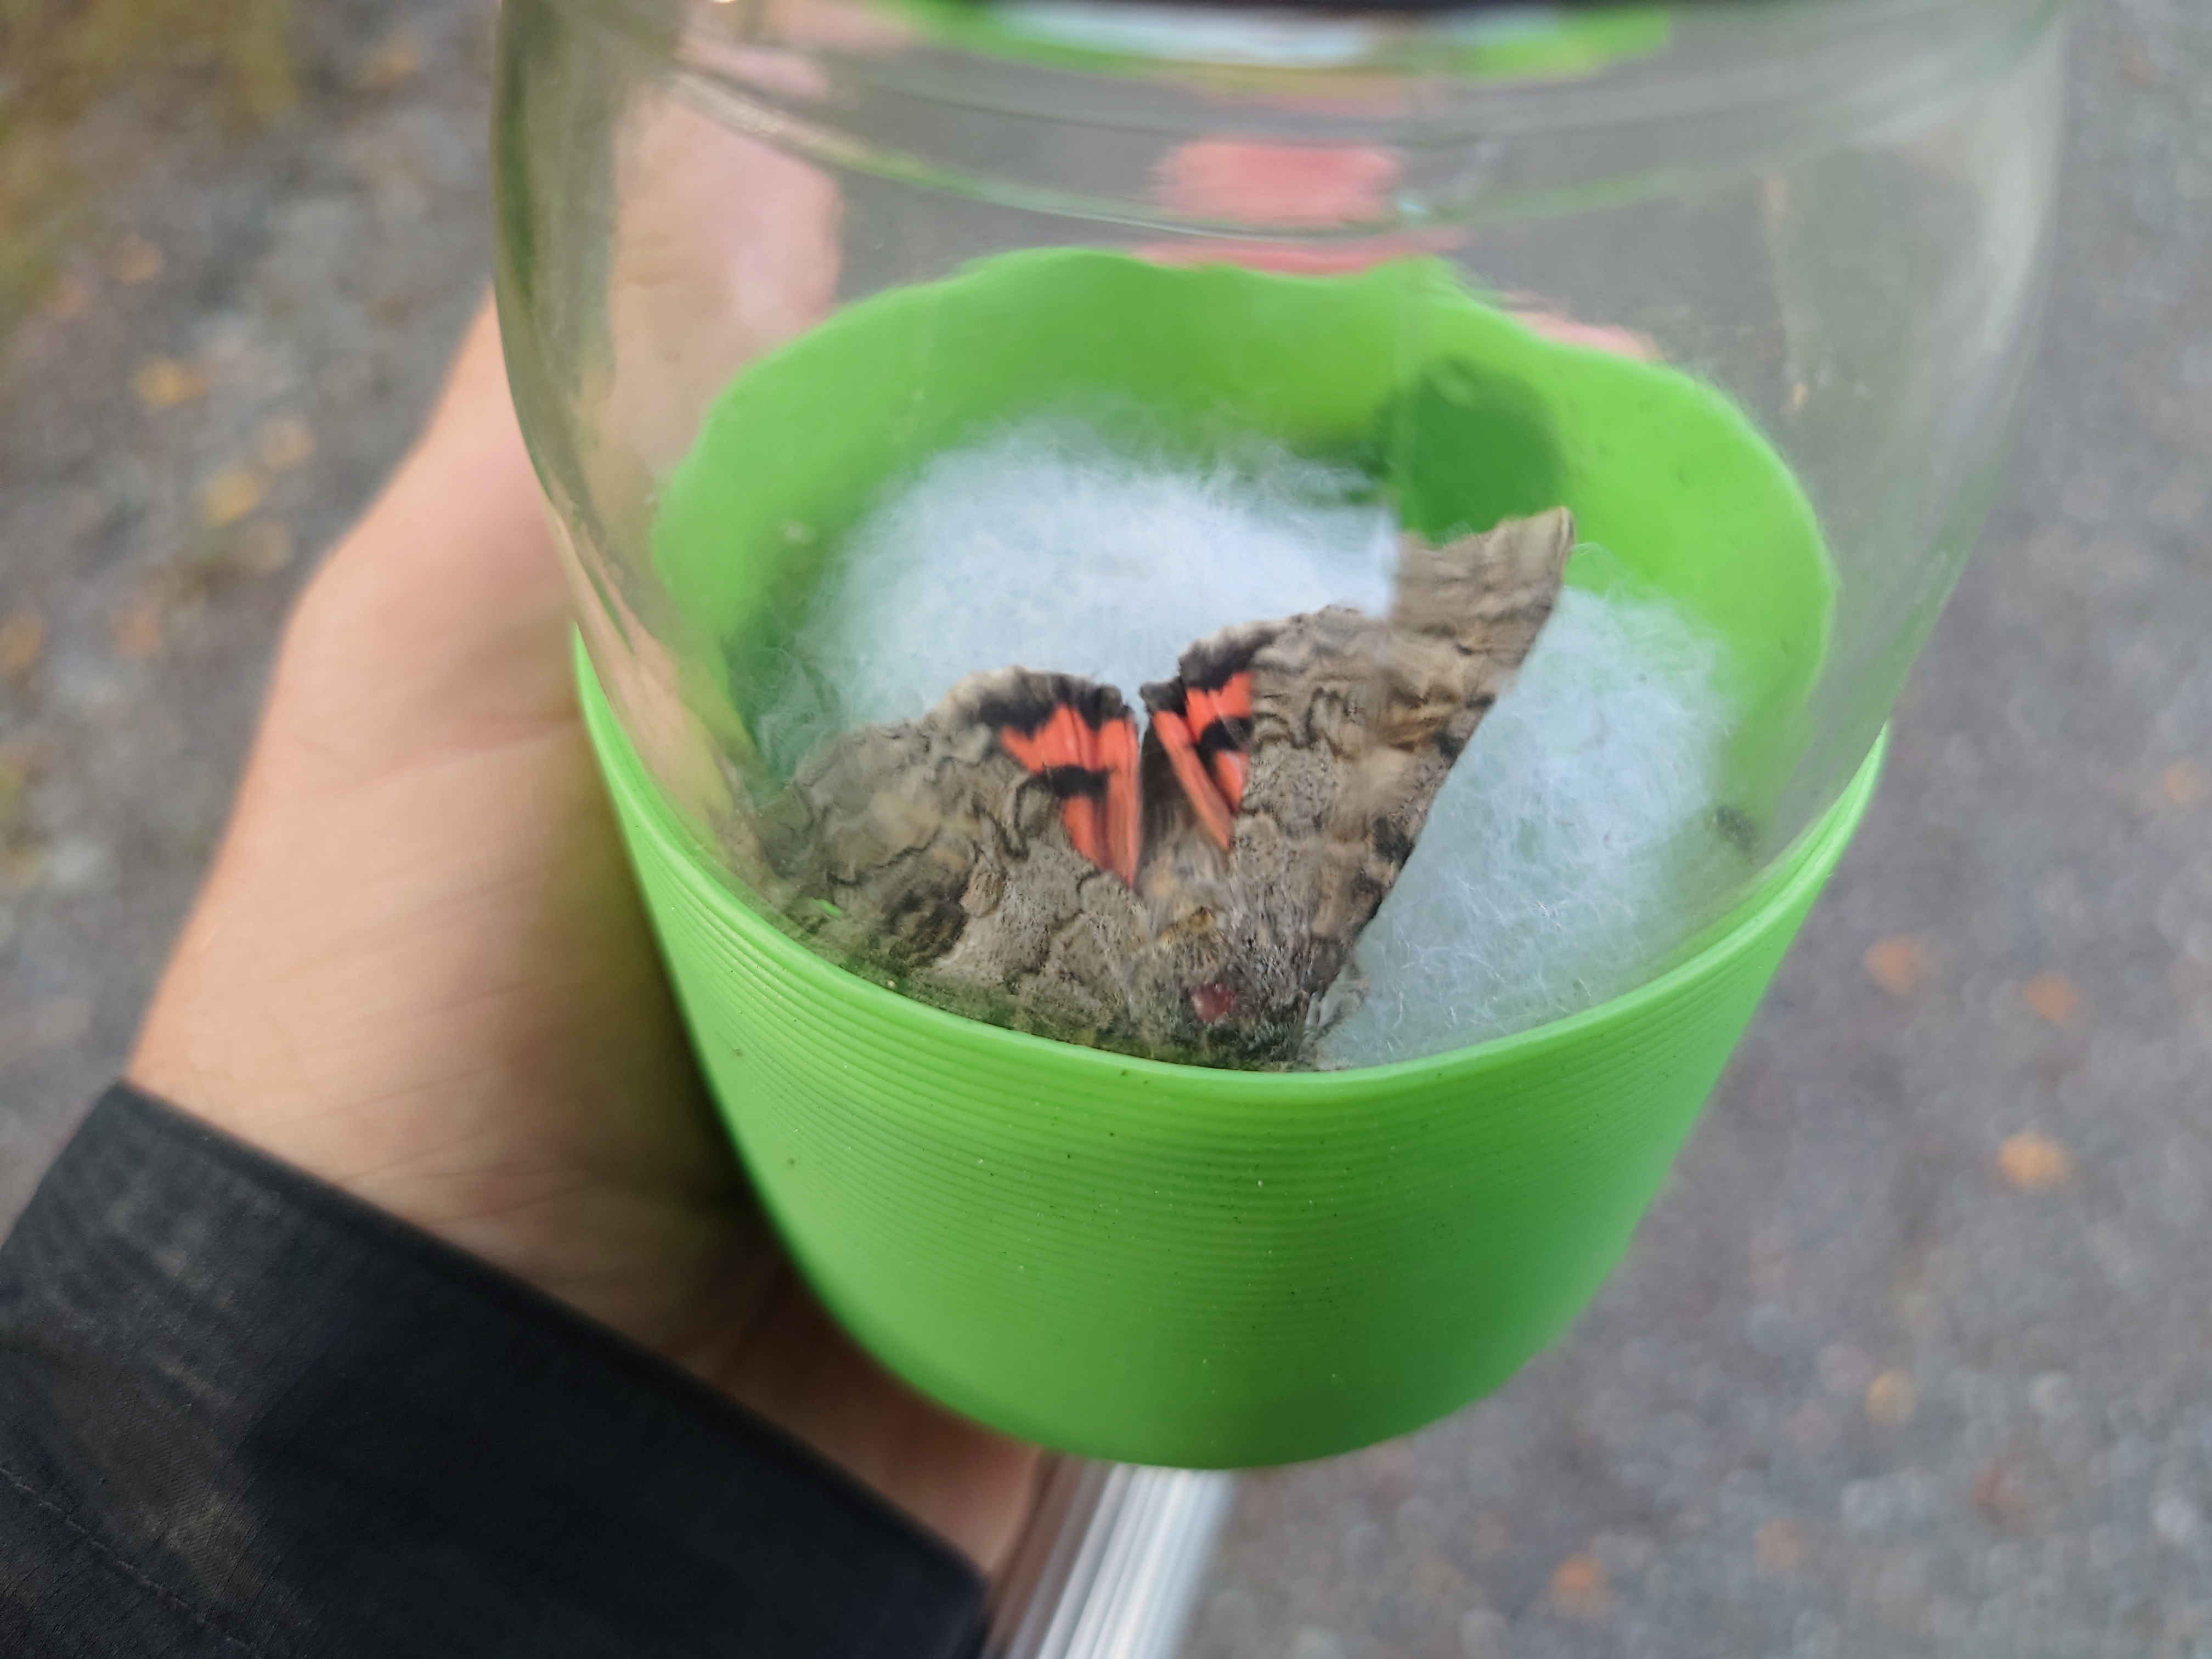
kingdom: Animalia
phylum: Arthropoda
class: Insecta
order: Lepidoptera
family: Erebidae
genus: Catocala
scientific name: Catocala nupta
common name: Red underwing
